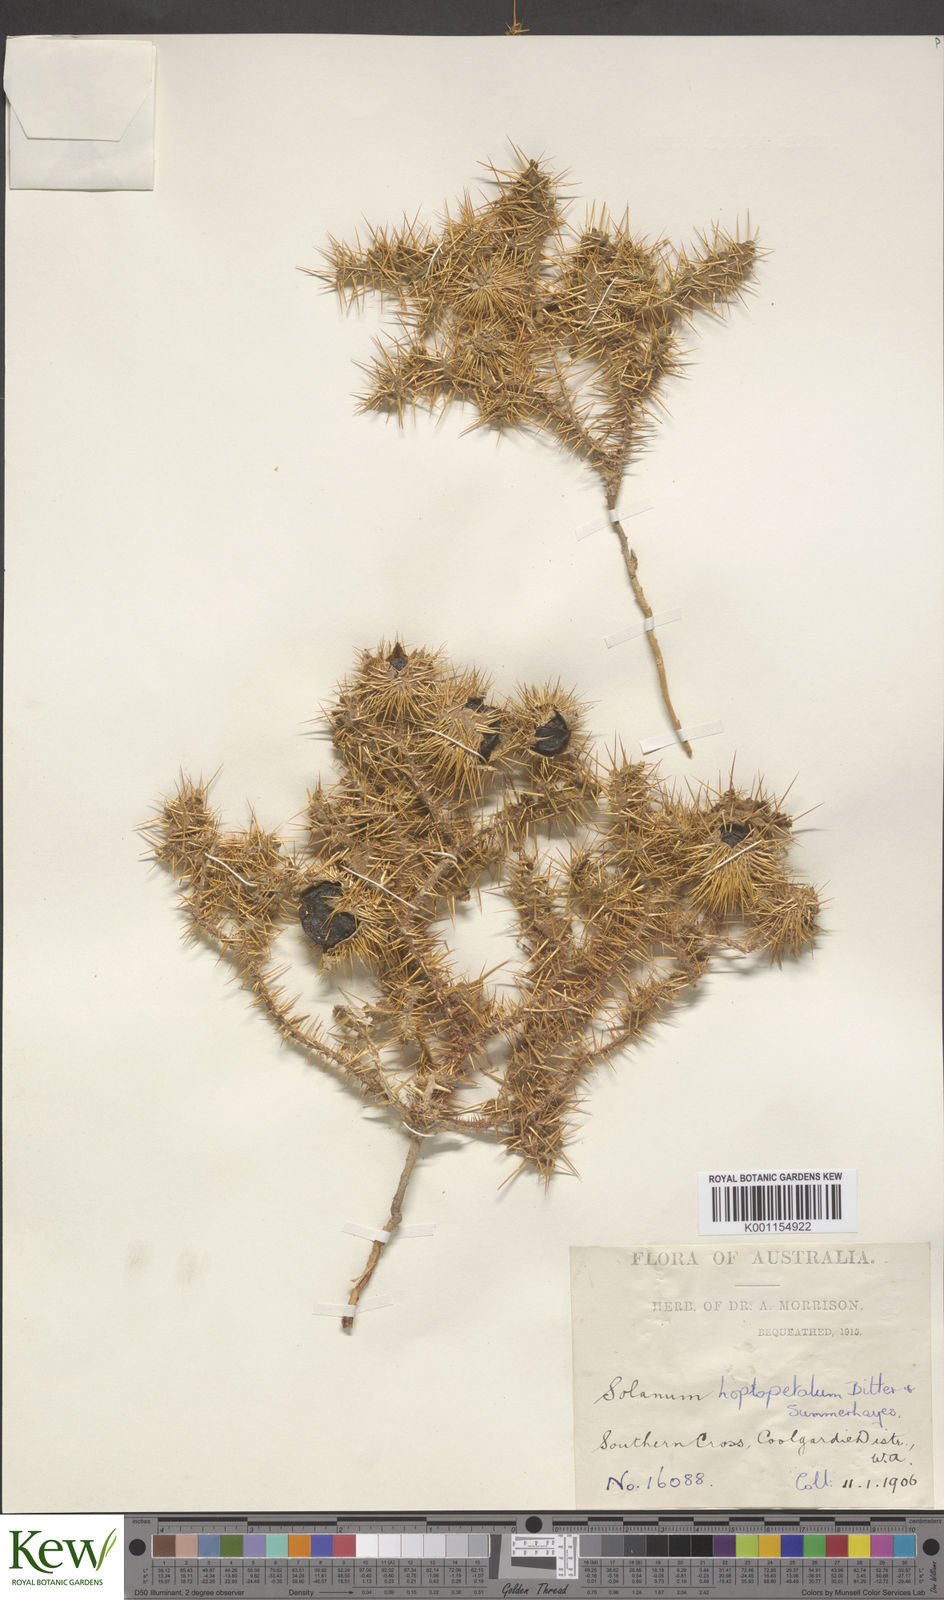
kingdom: Plantae
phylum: Tracheophyta
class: Magnoliopsida
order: Solanales
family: Solanaceae
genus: Solanum
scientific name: Solanum hoplopetalum
